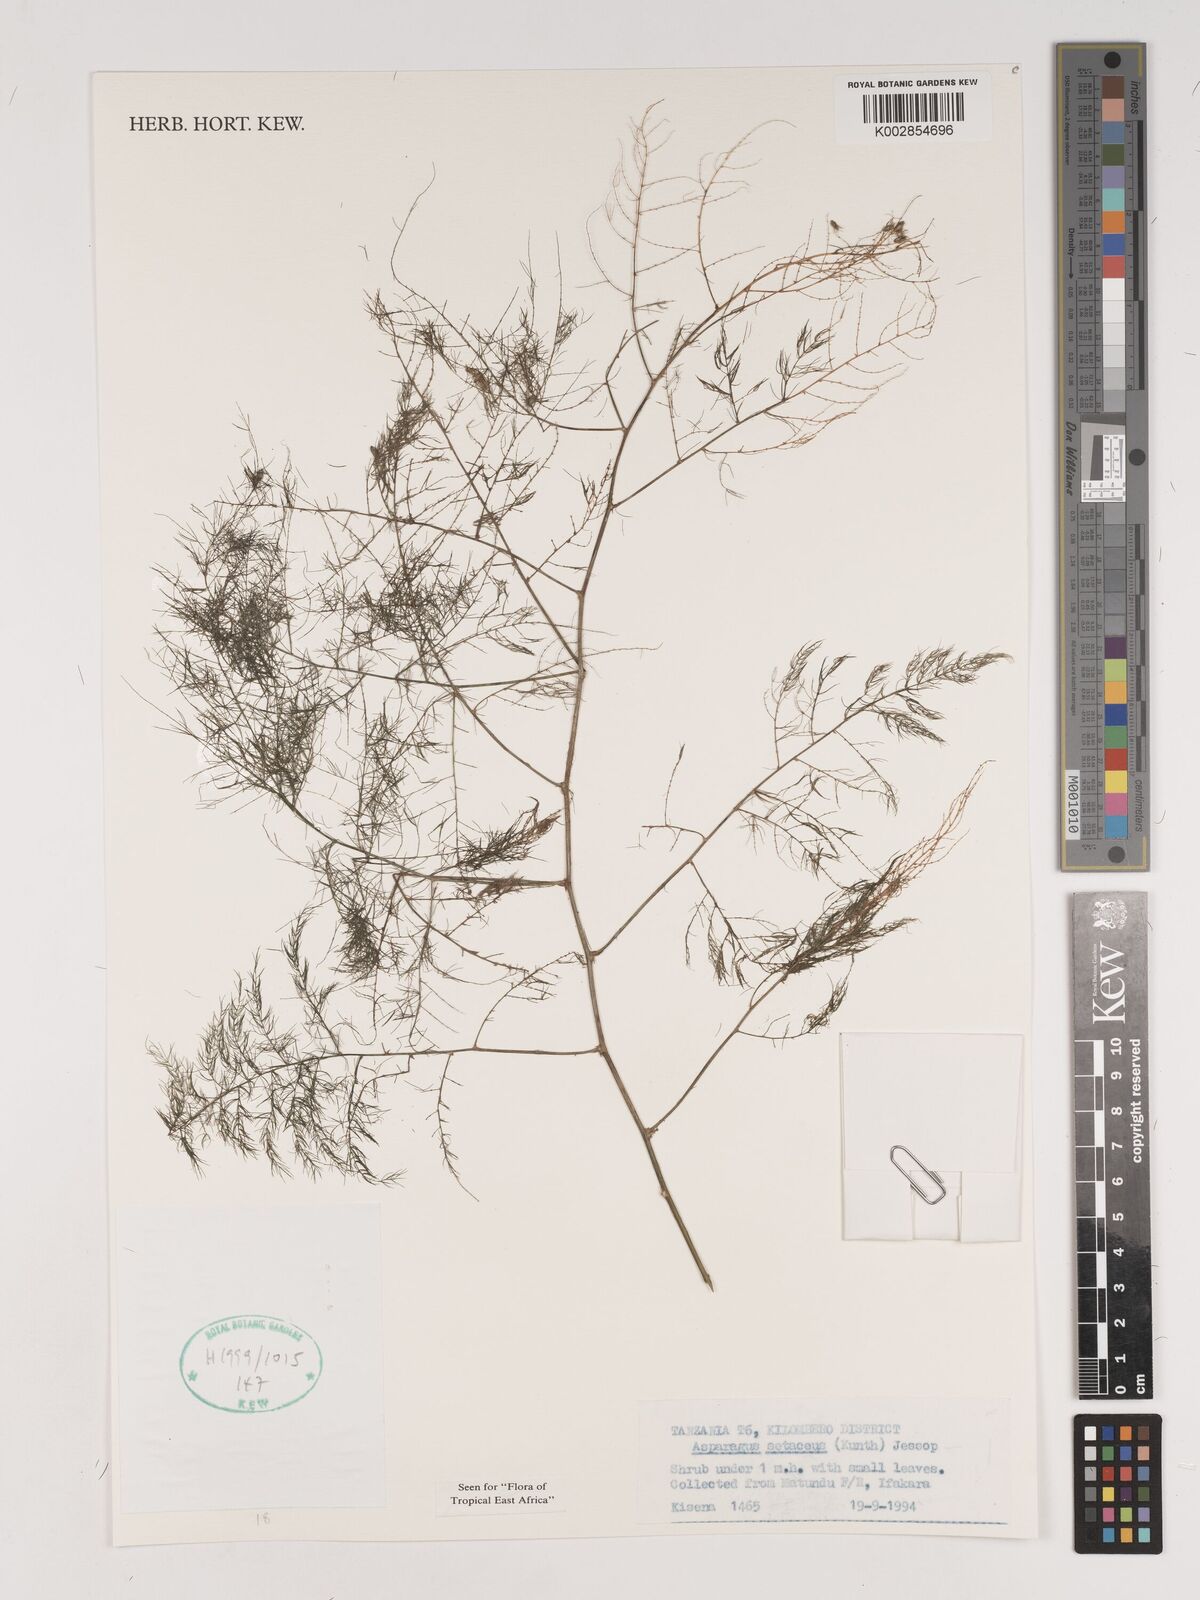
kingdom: Plantae
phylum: Tracheophyta
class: Liliopsida
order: Asparagales
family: Asparagaceae
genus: Asparagus
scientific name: Asparagus setaceus
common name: Common asparagus fern
